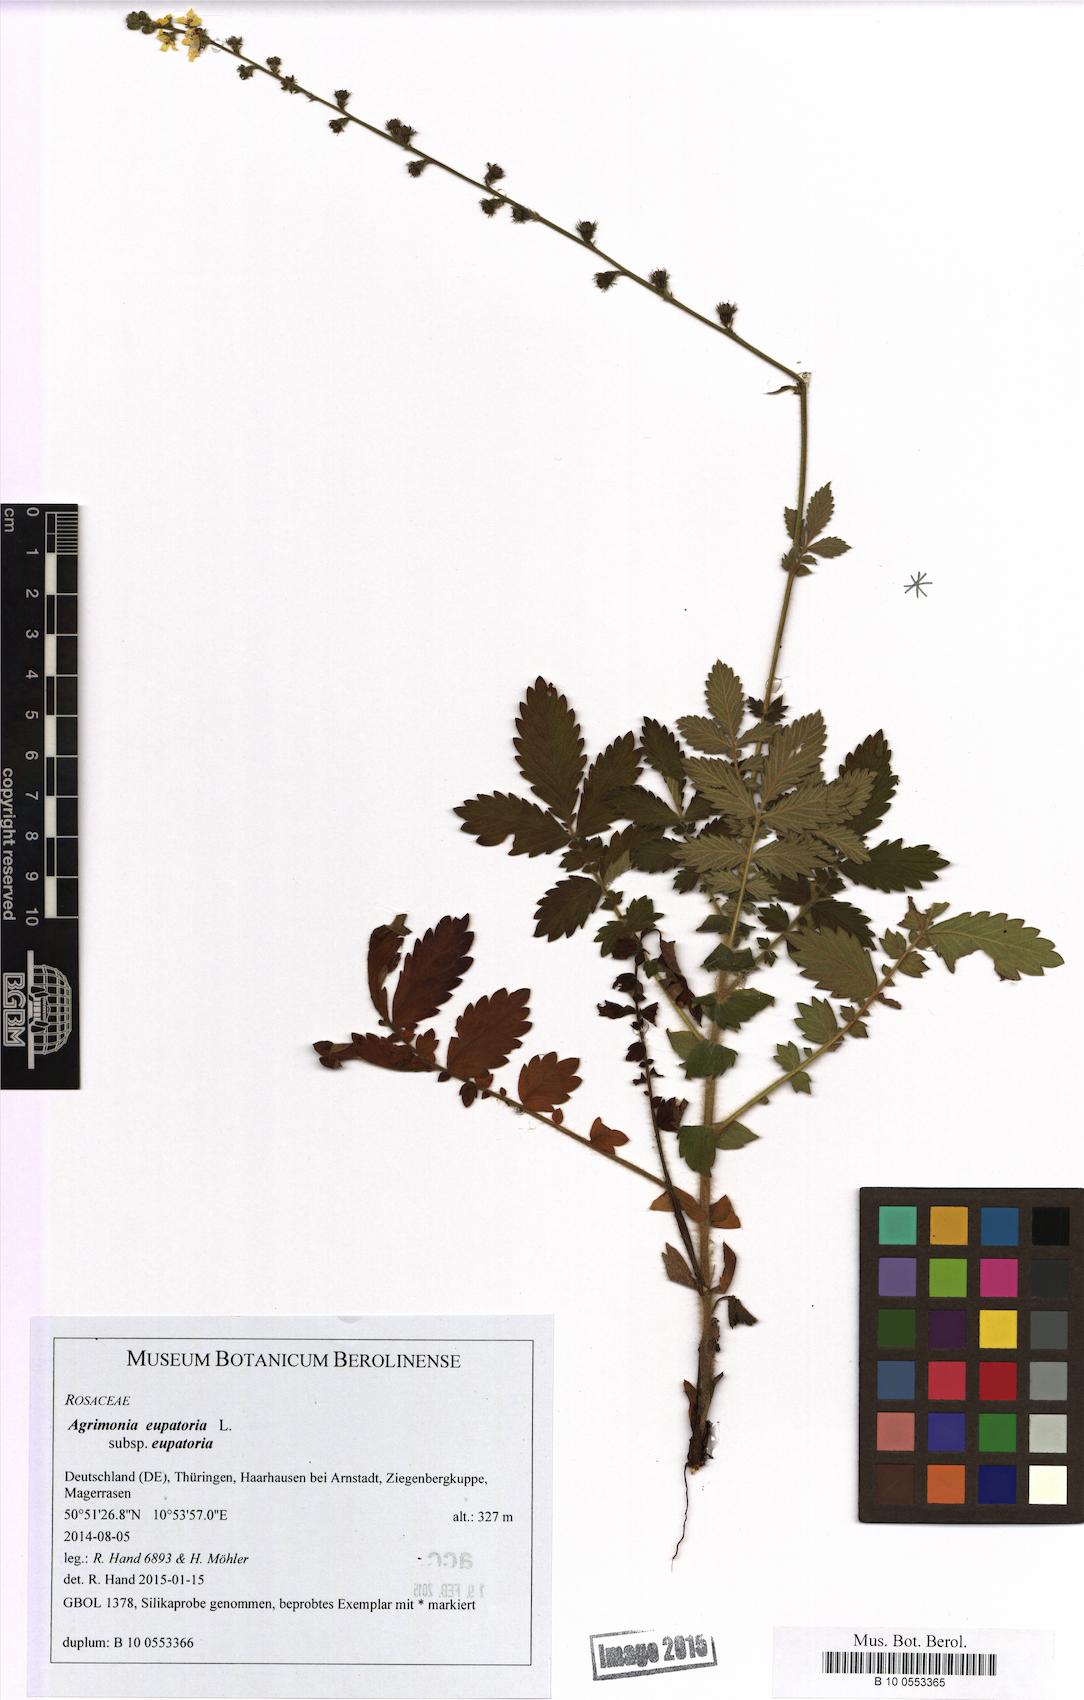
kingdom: Plantae
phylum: Tracheophyta
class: Magnoliopsida
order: Rosales
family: Rosaceae
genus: Agrimonia
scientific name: Agrimonia eupatoria
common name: Agrimony
